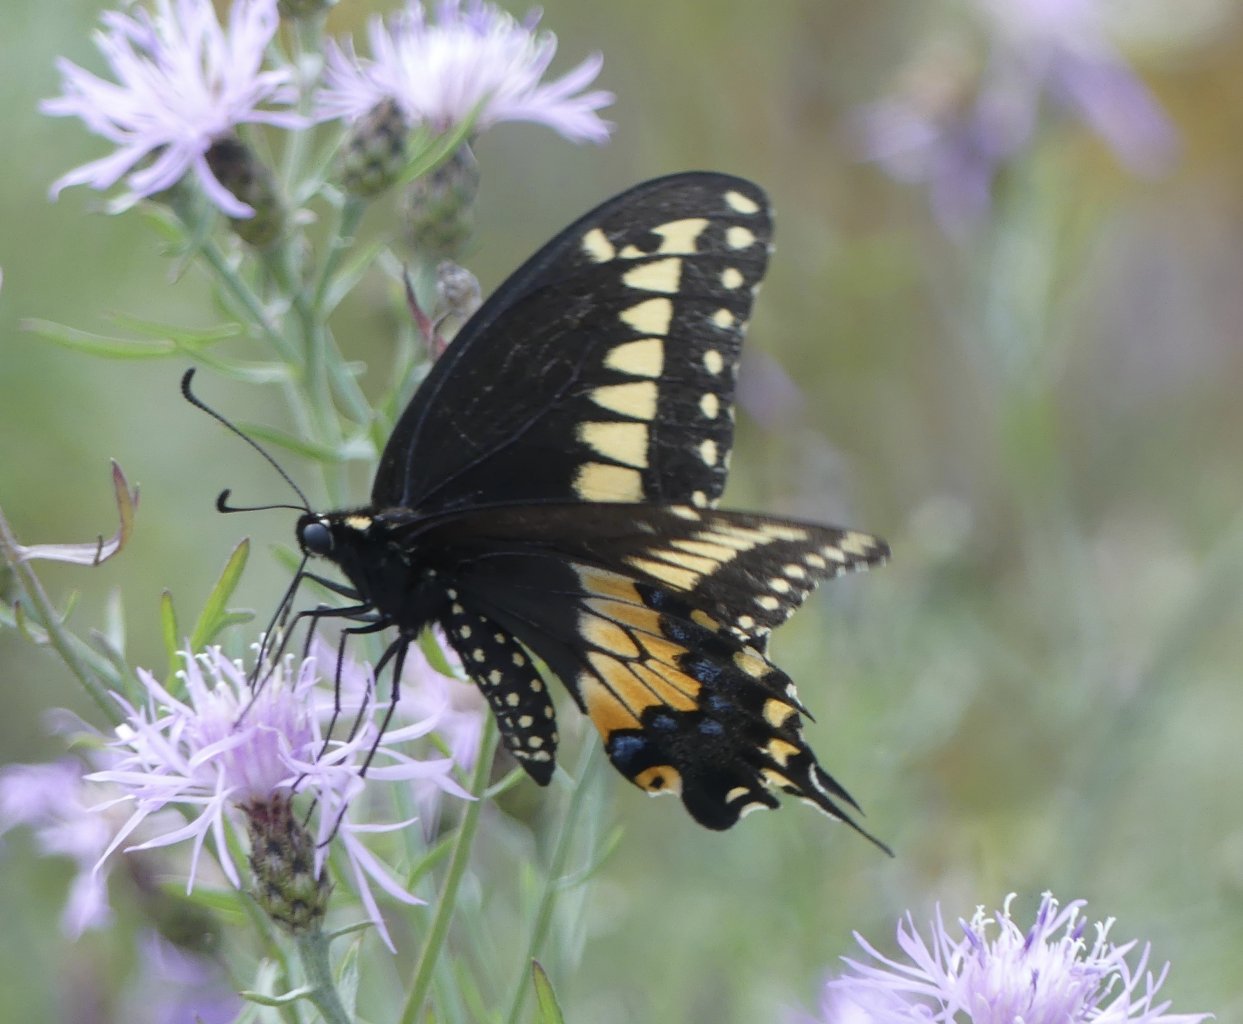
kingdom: Animalia
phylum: Arthropoda
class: Insecta
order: Lepidoptera
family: Papilionidae
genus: Papilio
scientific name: Papilio polyxenes
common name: Black Swallowtail
